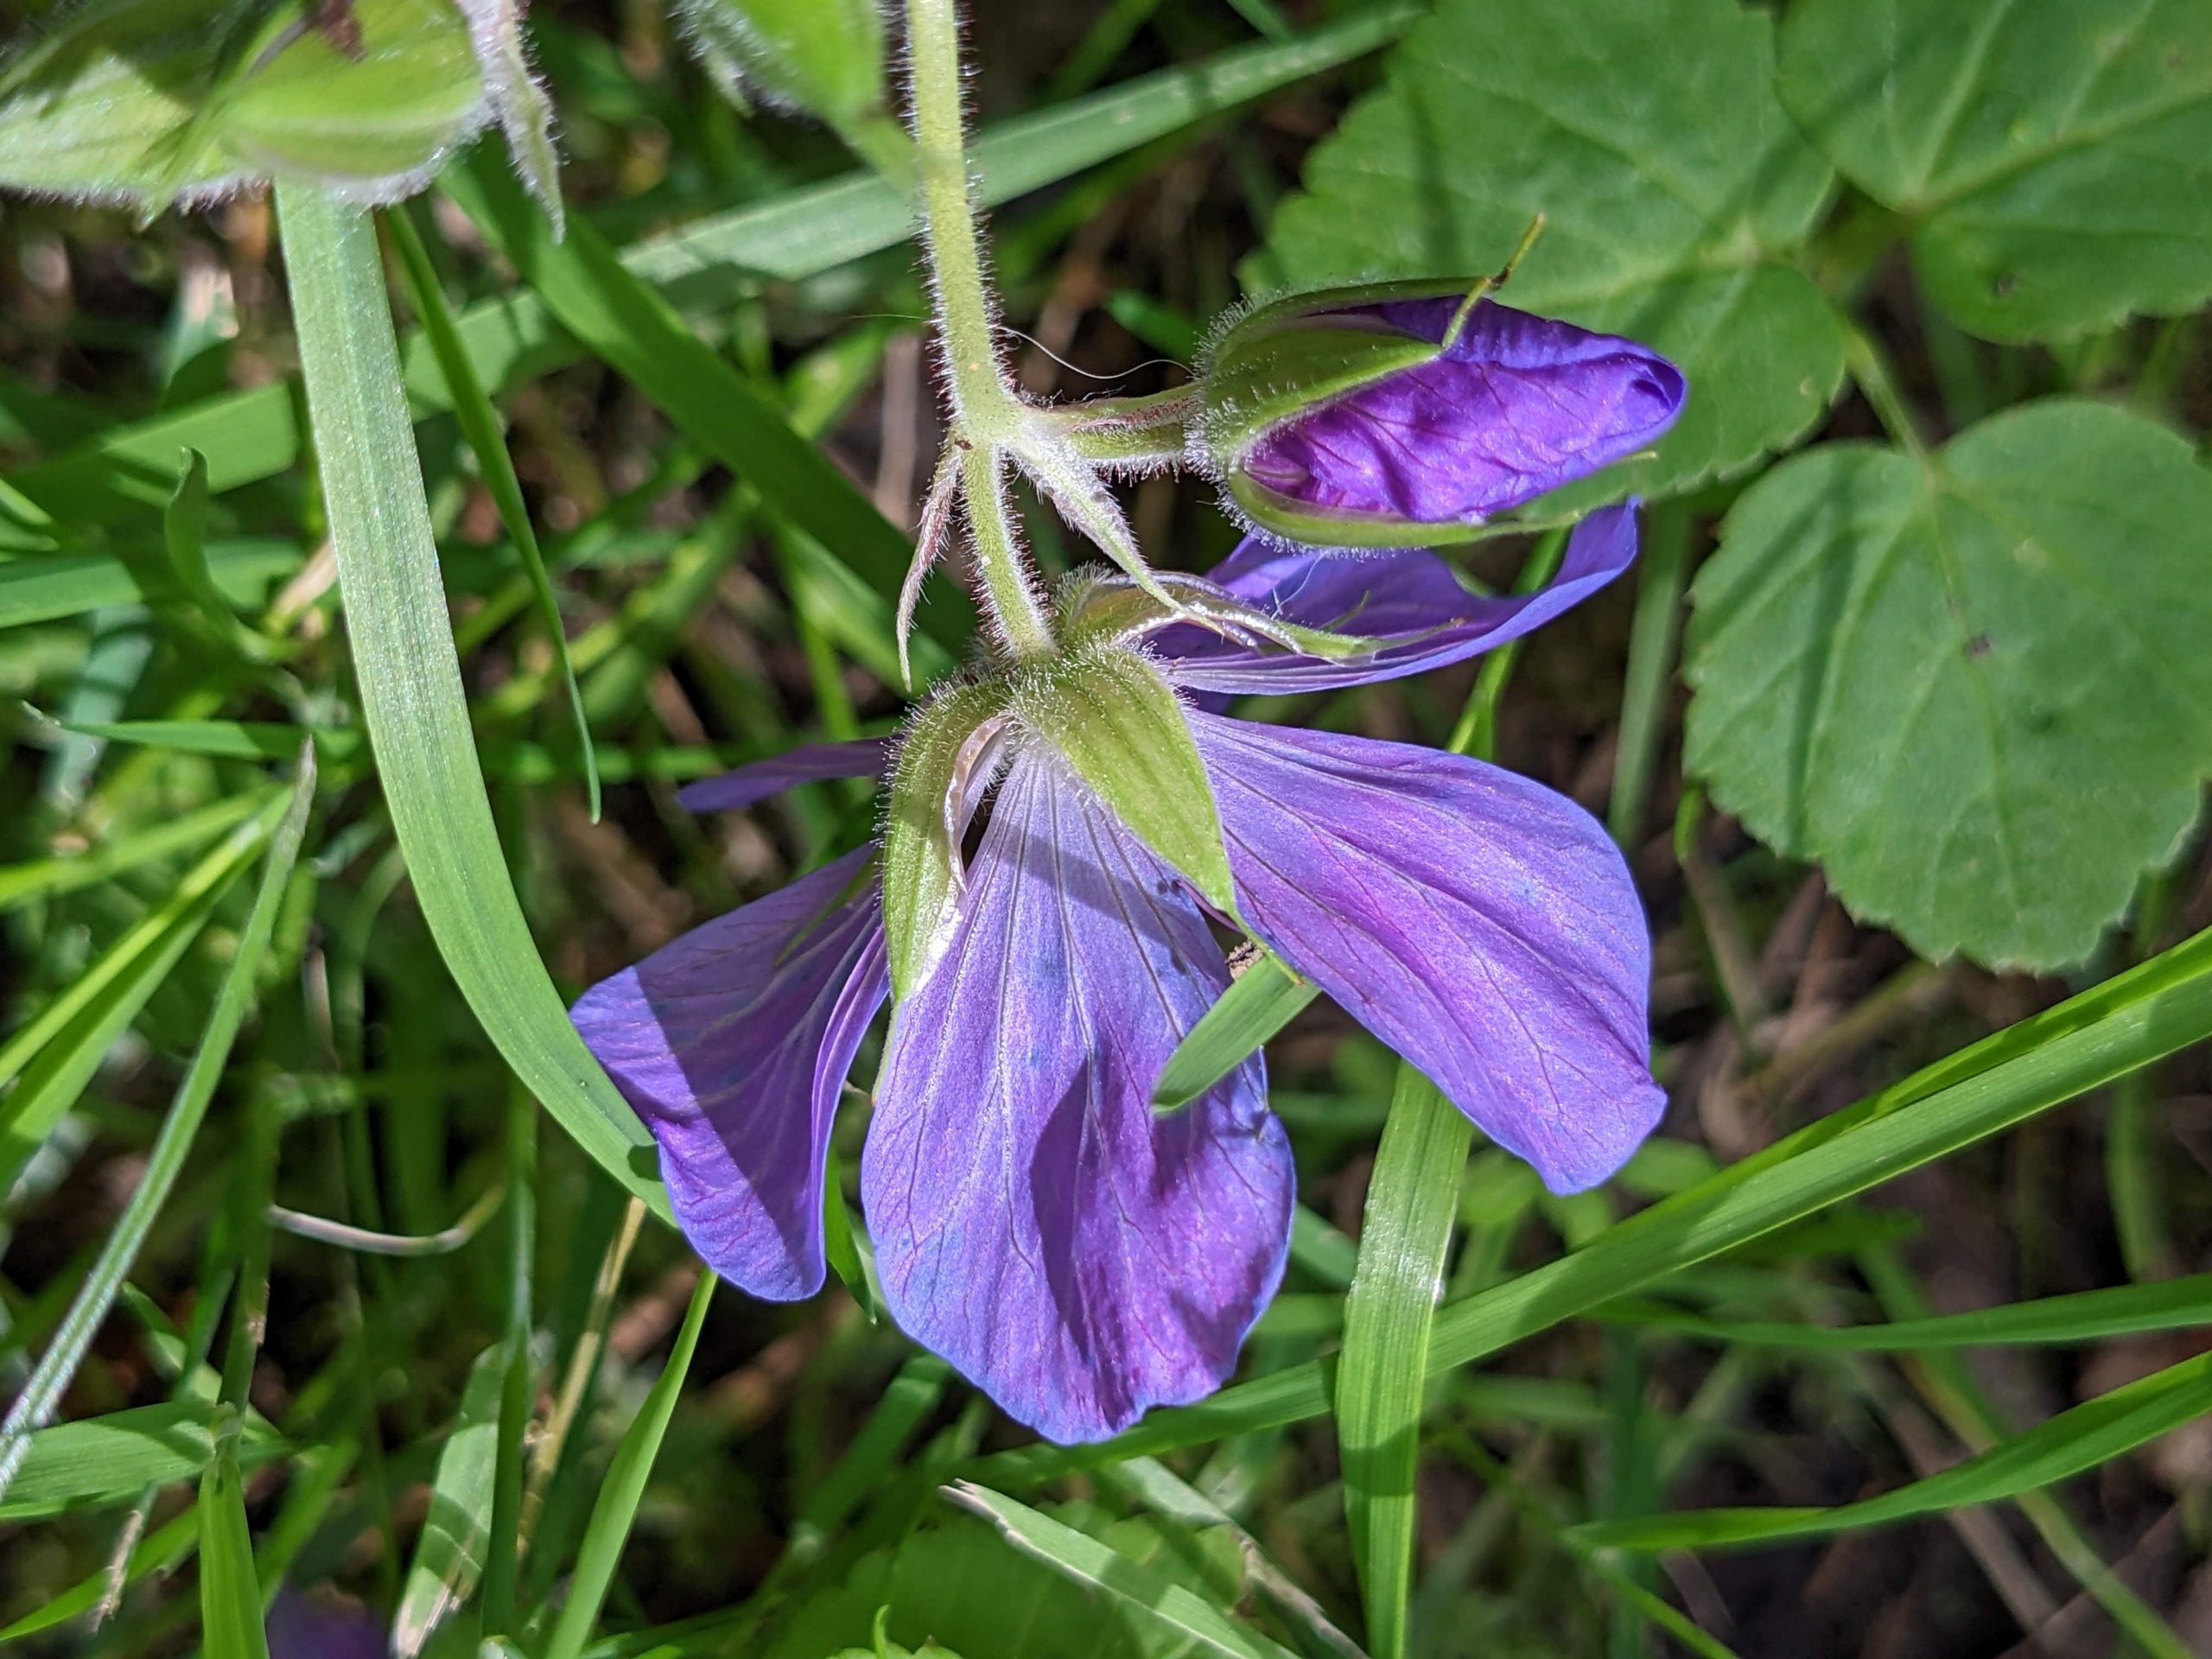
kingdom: Plantae
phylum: Tracheophyta
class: Magnoliopsida
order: Geraniales
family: Geraniaceae
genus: Geranium
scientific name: Geranium pratense
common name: Eng-storkenæb
